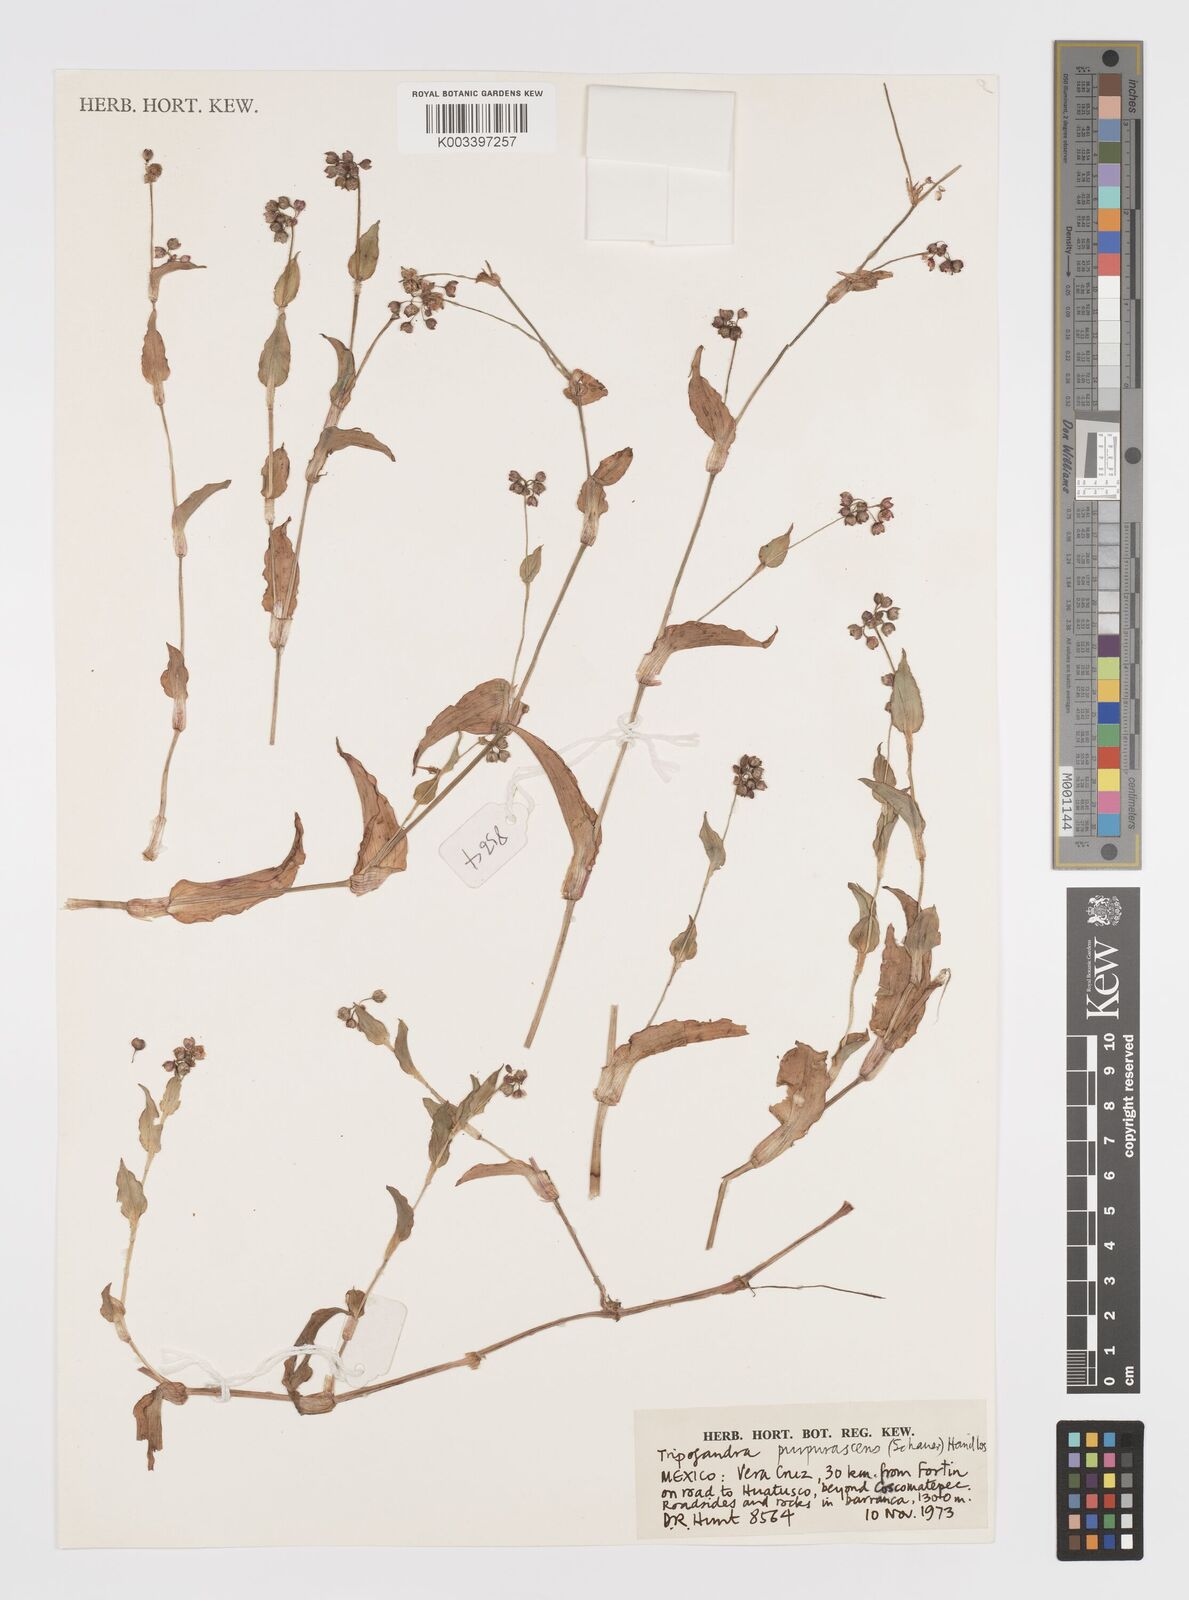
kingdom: Plantae
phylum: Tracheophyta
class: Liliopsida
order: Commelinales
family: Commelinaceae
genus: Callisia
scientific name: Callisia purpurascens
